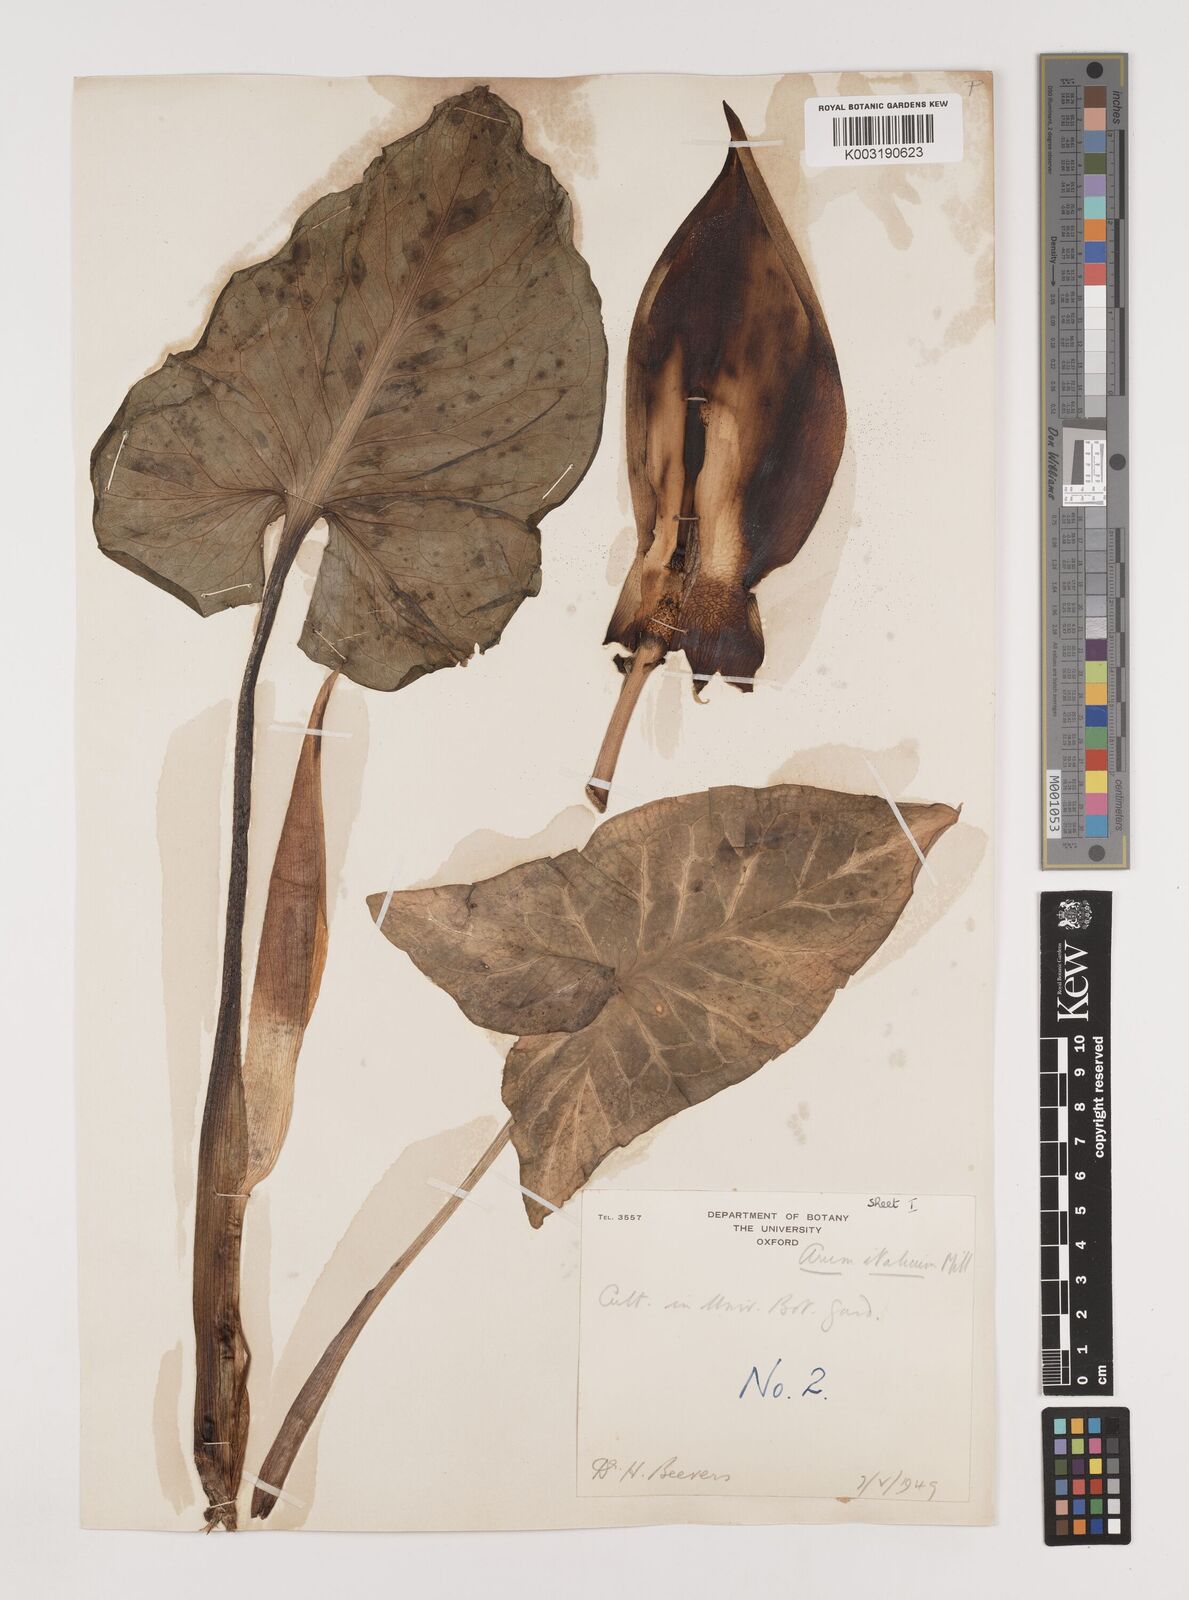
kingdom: Plantae
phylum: Tracheophyta
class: Liliopsida
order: Alismatales
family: Araceae
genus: Arum
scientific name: Arum italicum
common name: Italian lords-and-ladies
